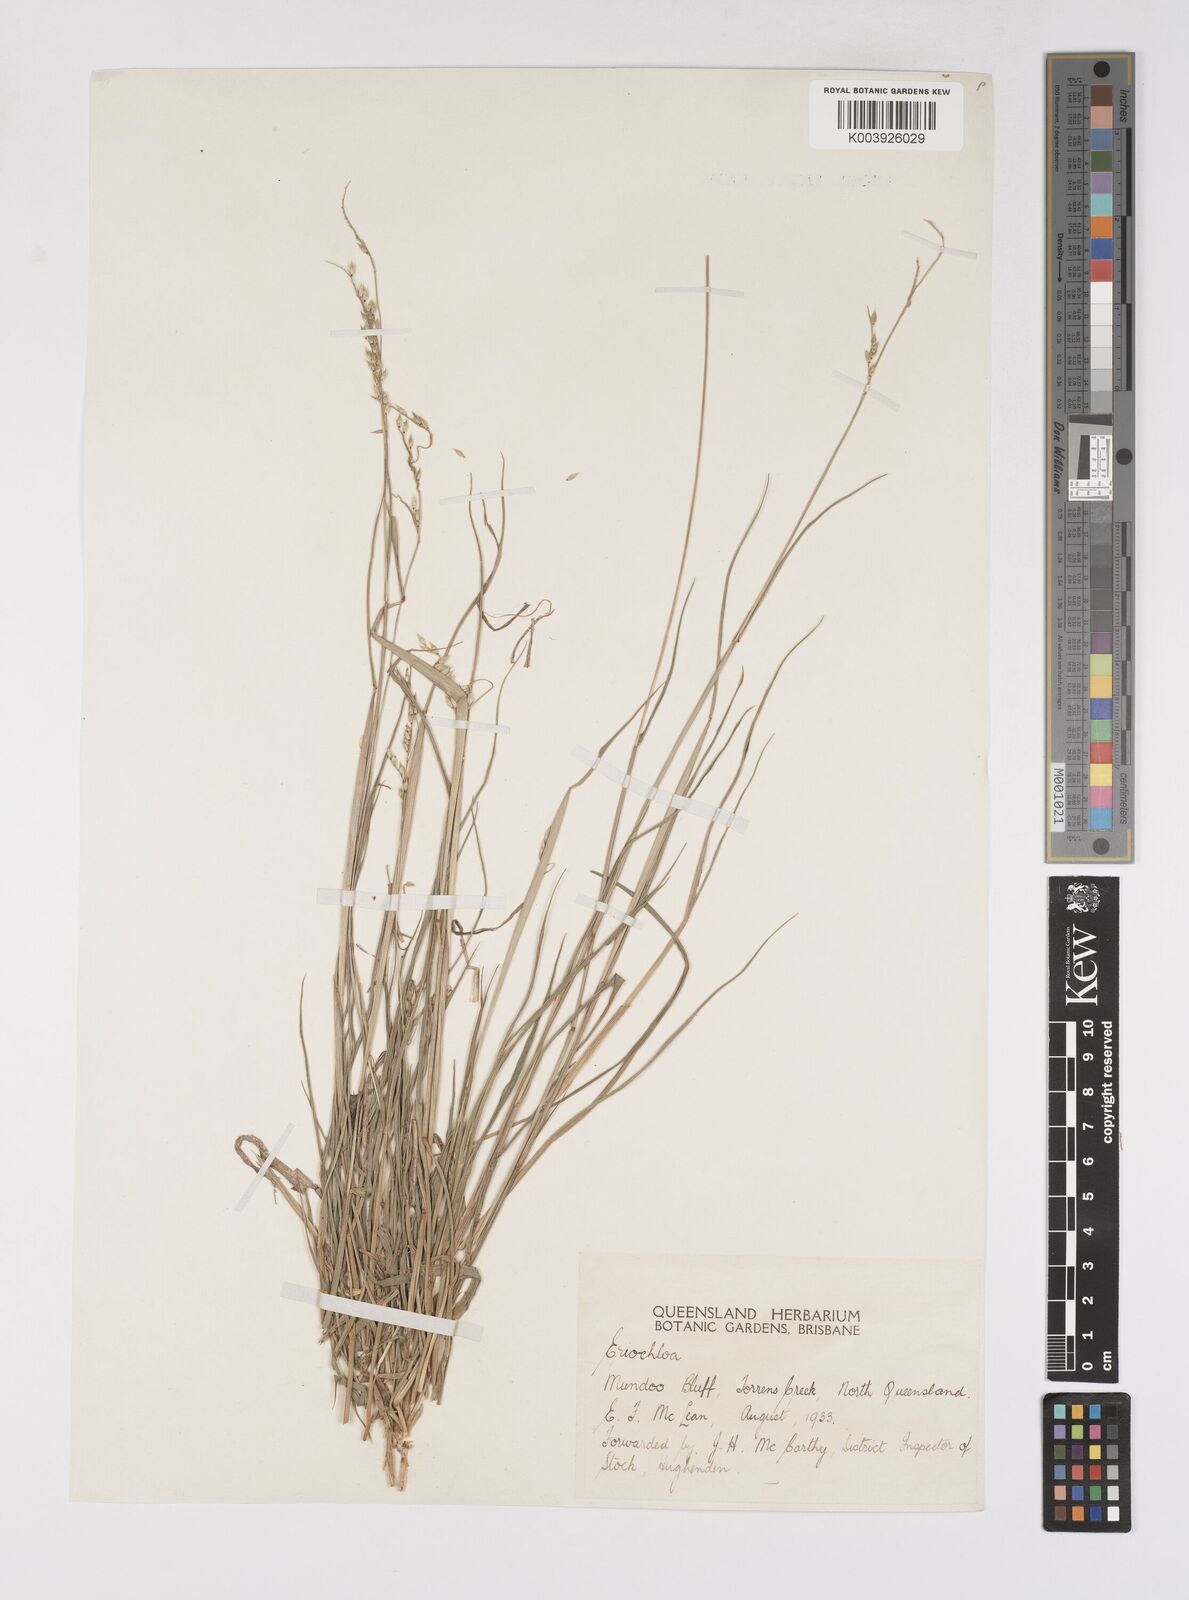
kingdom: Plantae
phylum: Tracheophyta
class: Liliopsida
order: Poales
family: Poaceae
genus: Eriochloa
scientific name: Eriochloa
